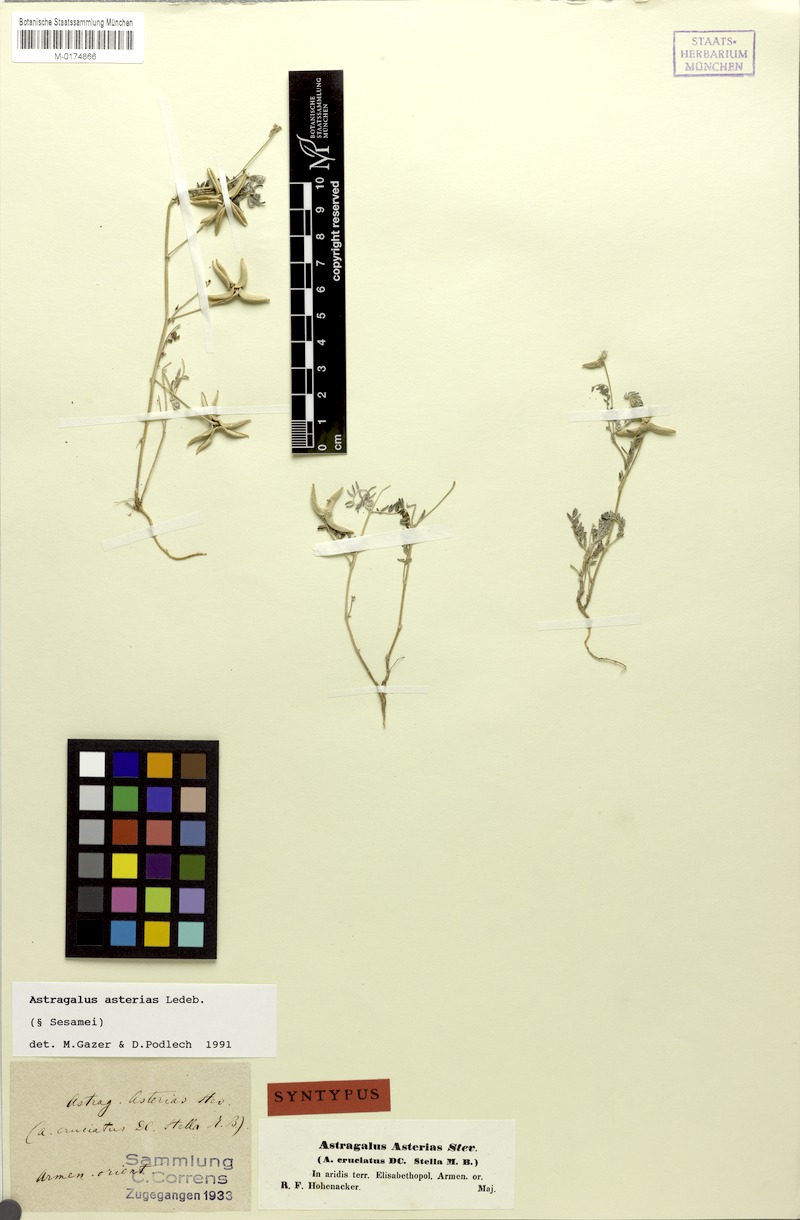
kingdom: Plantae
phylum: Tracheophyta
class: Magnoliopsida
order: Fabales
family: Fabaceae
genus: Astragalus
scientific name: Astragalus asterias
